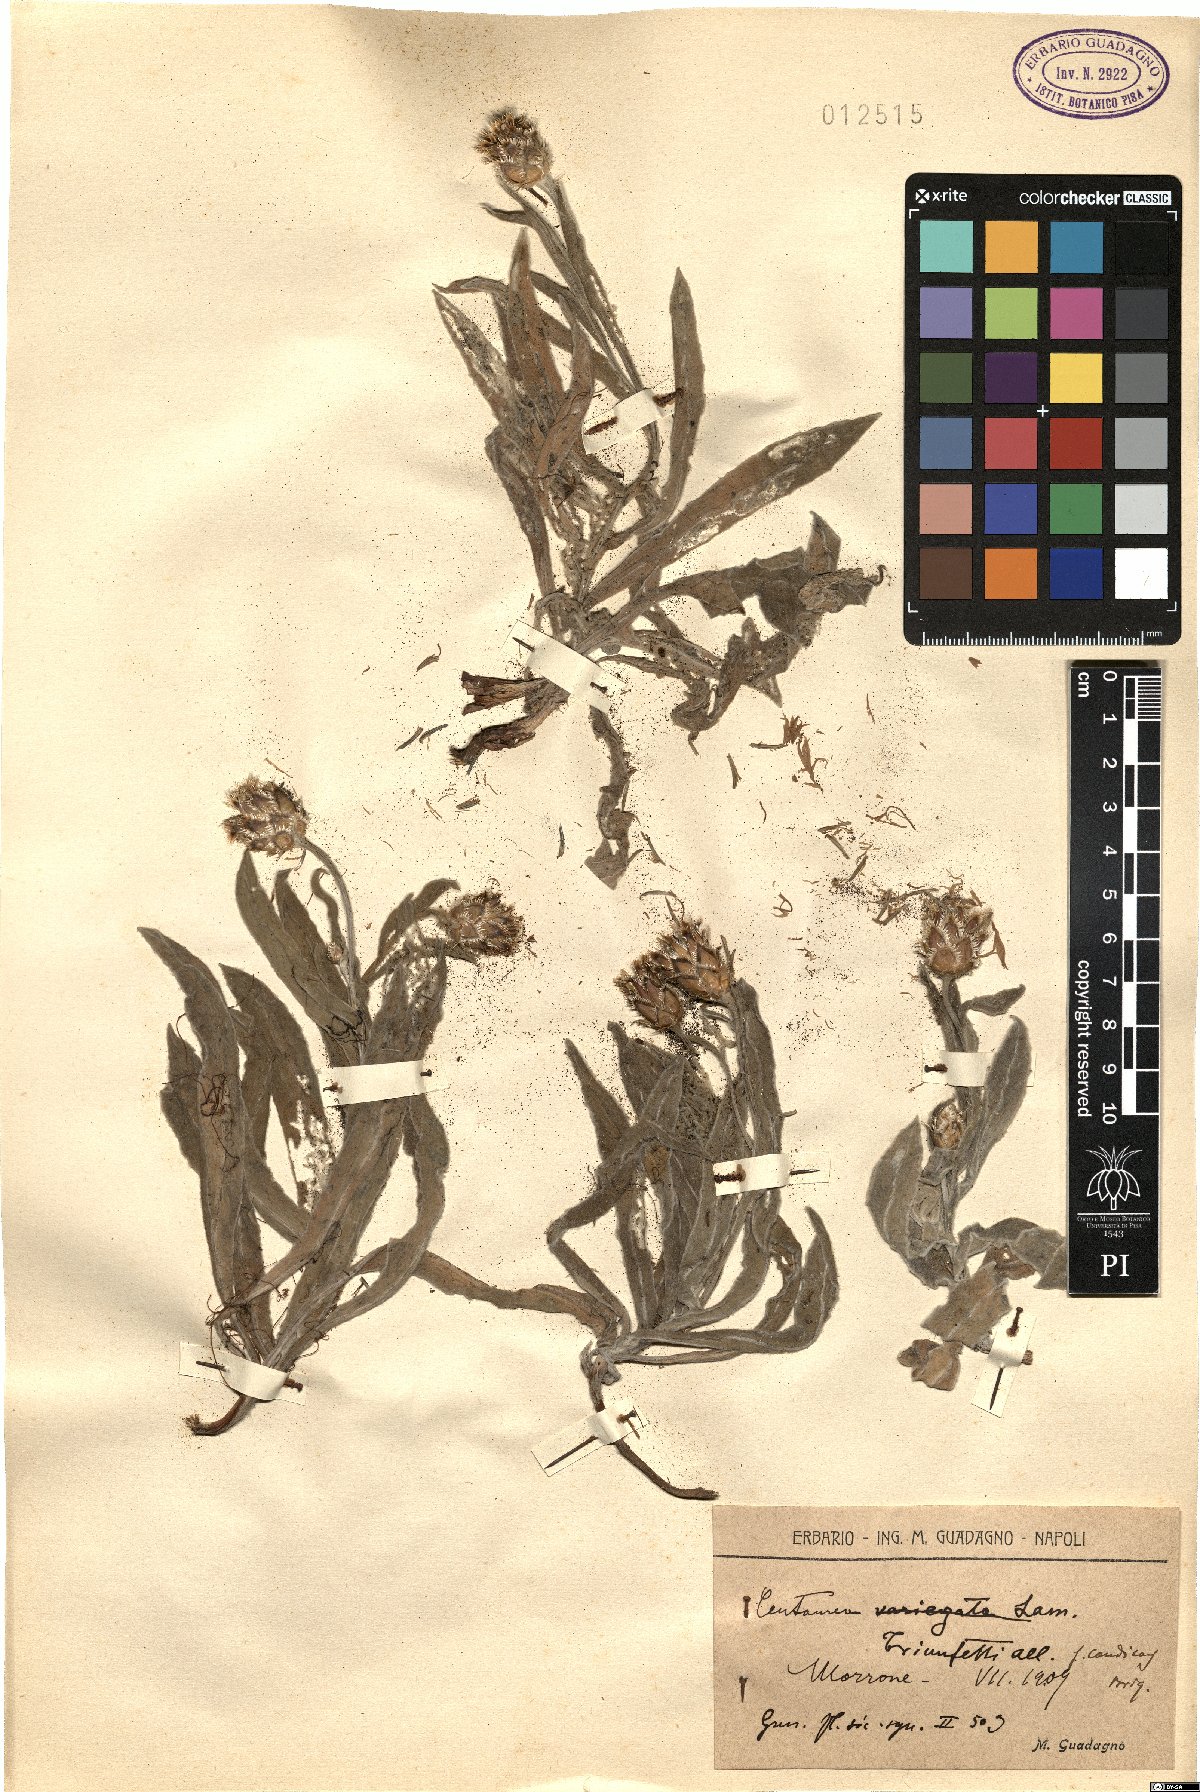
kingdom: Plantae
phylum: Tracheophyta
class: Magnoliopsida
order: Asterales
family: Asteraceae
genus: Centaurea
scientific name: Centaurea triumfettii
